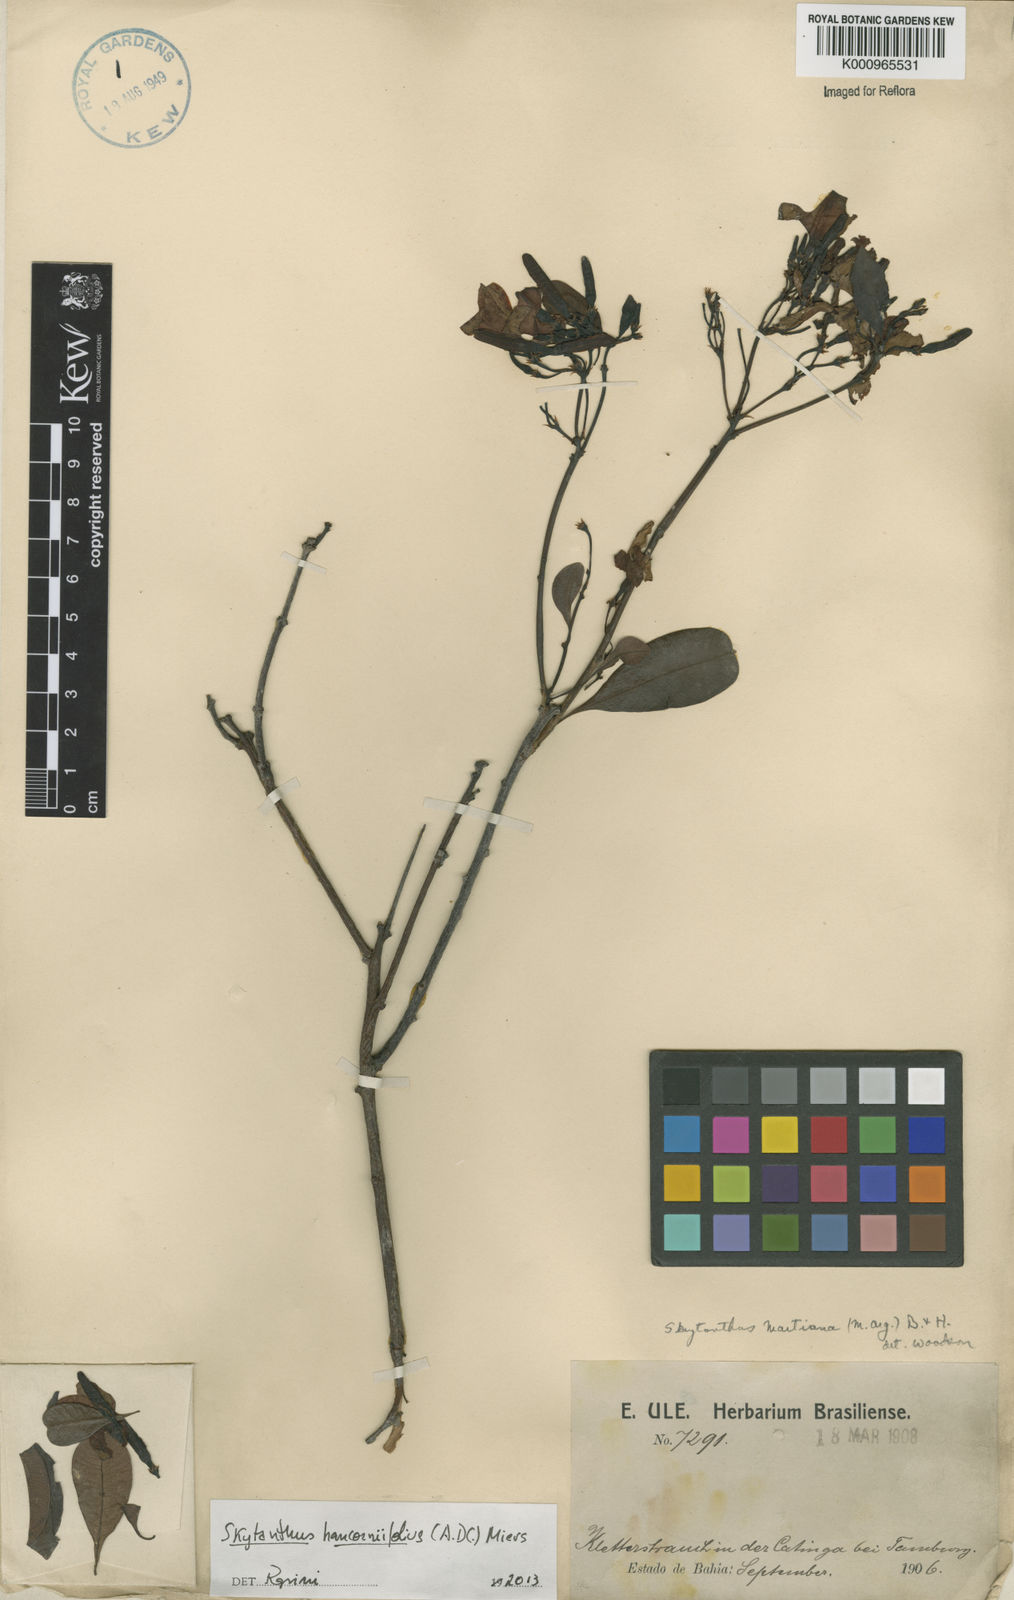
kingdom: Plantae
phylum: Tracheophyta
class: Magnoliopsida
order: Gentianales
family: Apocynaceae
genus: Skytanthus
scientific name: Skytanthus hancorniifolius
